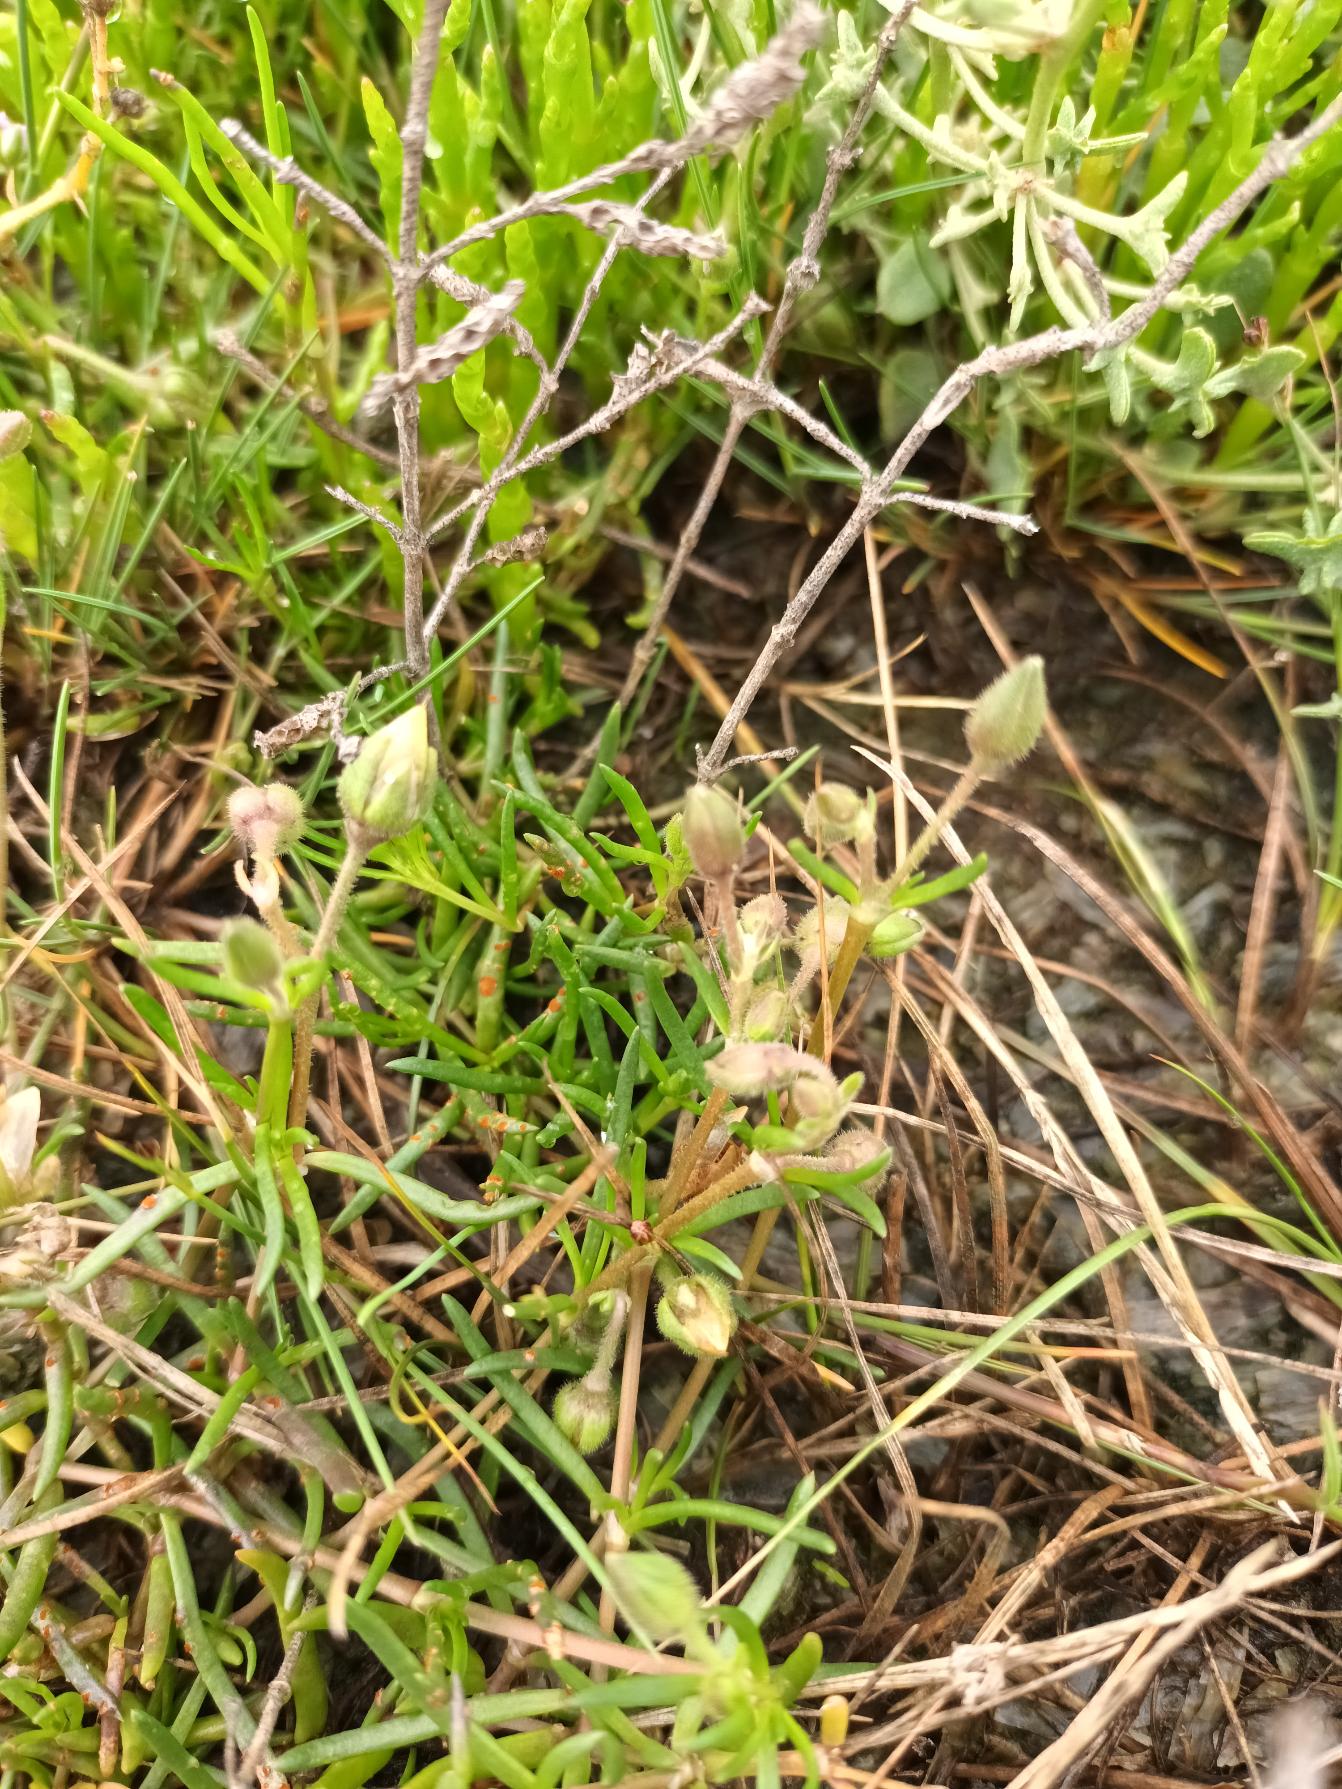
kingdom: Plantae
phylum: Tracheophyta
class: Magnoliopsida
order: Caryophyllales
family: Caryophyllaceae
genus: Spergularia
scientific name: Spergularia media
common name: Vingefrøet hindeknæ
